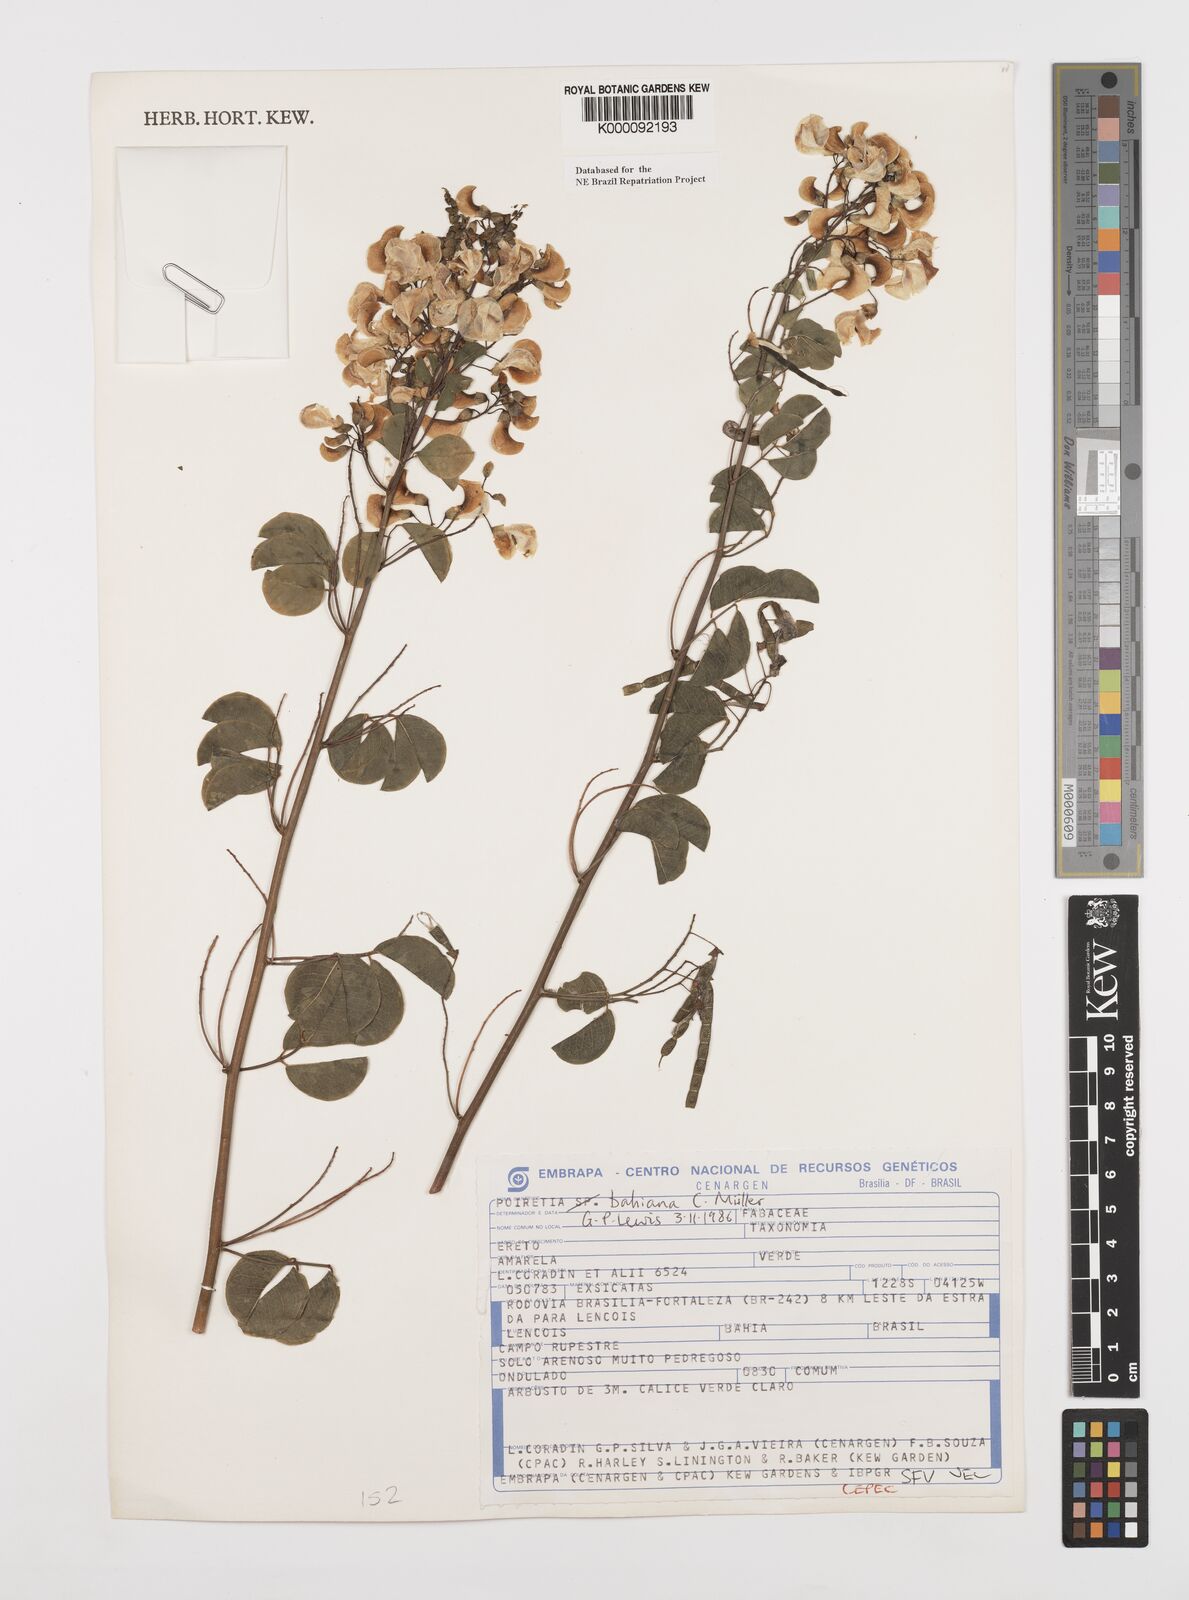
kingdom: Plantae
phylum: Tracheophyta
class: Magnoliopsida
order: Fabales
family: Fabaceae
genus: Poiretia
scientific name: Poiretia
